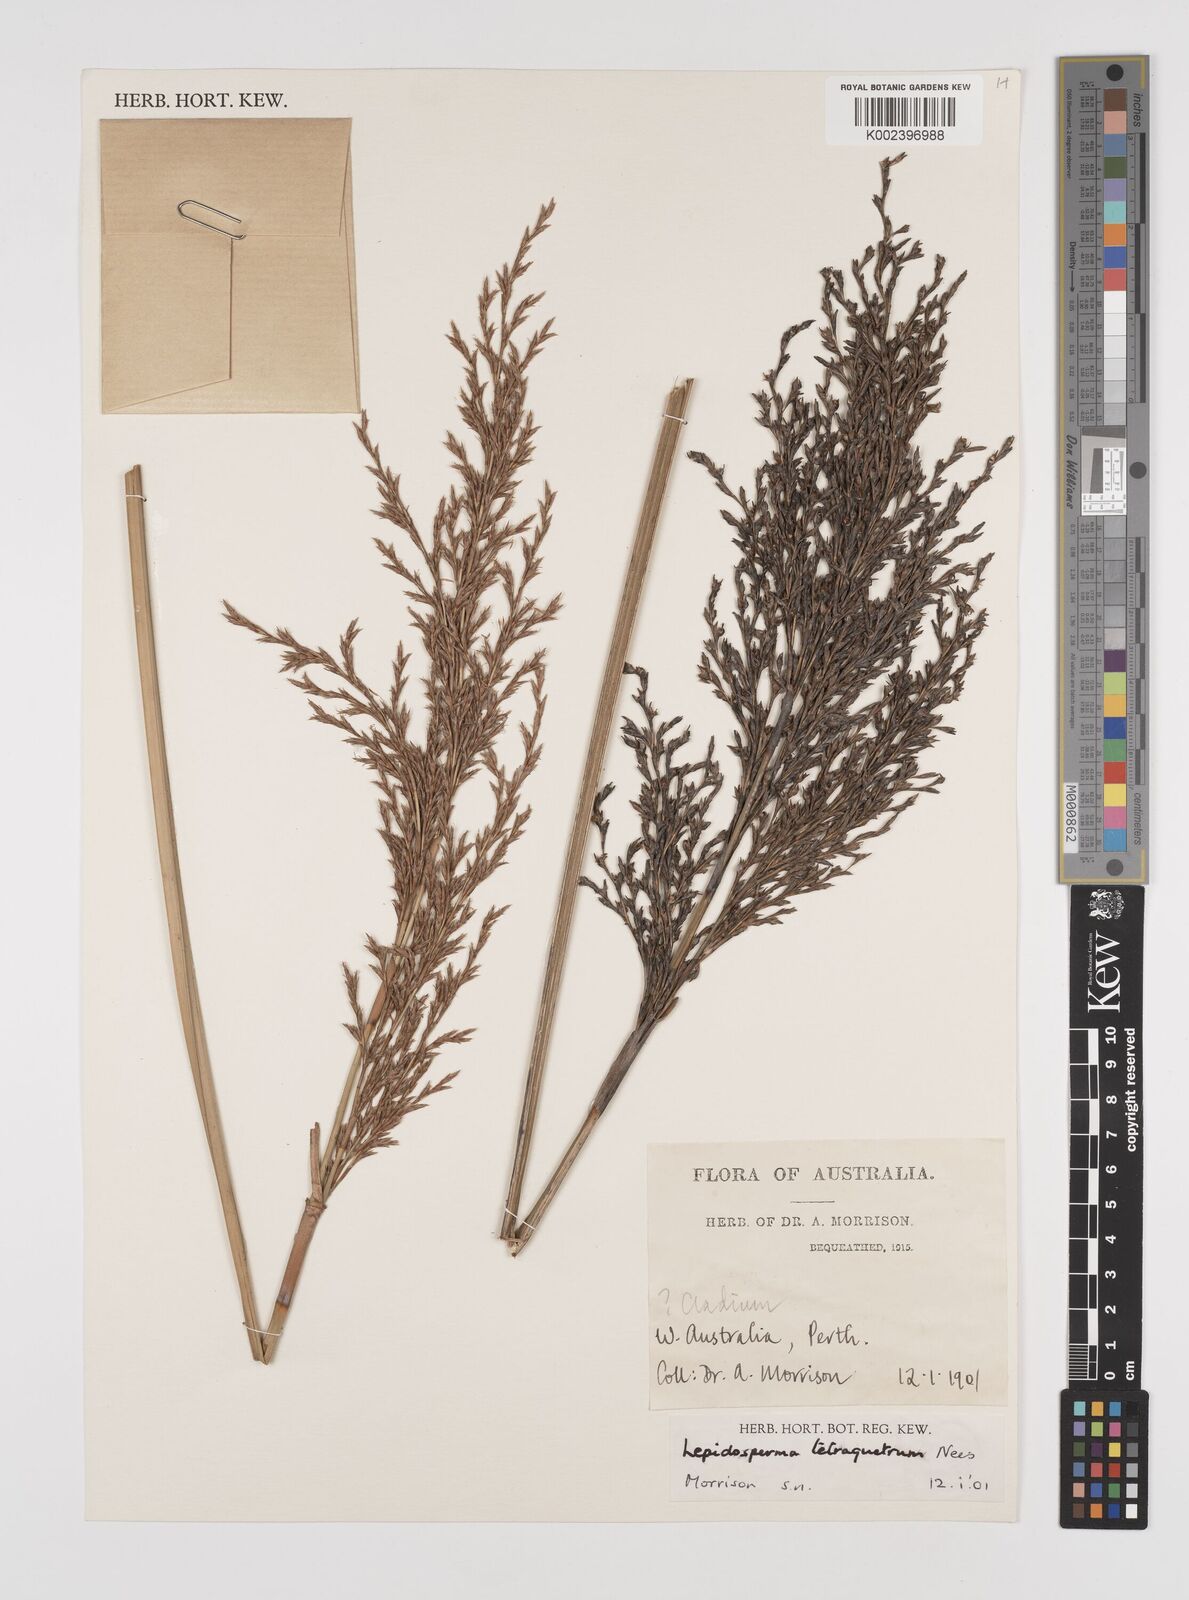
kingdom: Plantae
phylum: Tracheophyta
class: Liliopsida
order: Poales
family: Cyperaceae
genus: Lepidosperma
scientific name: Lepidosperma tetraquetrum
